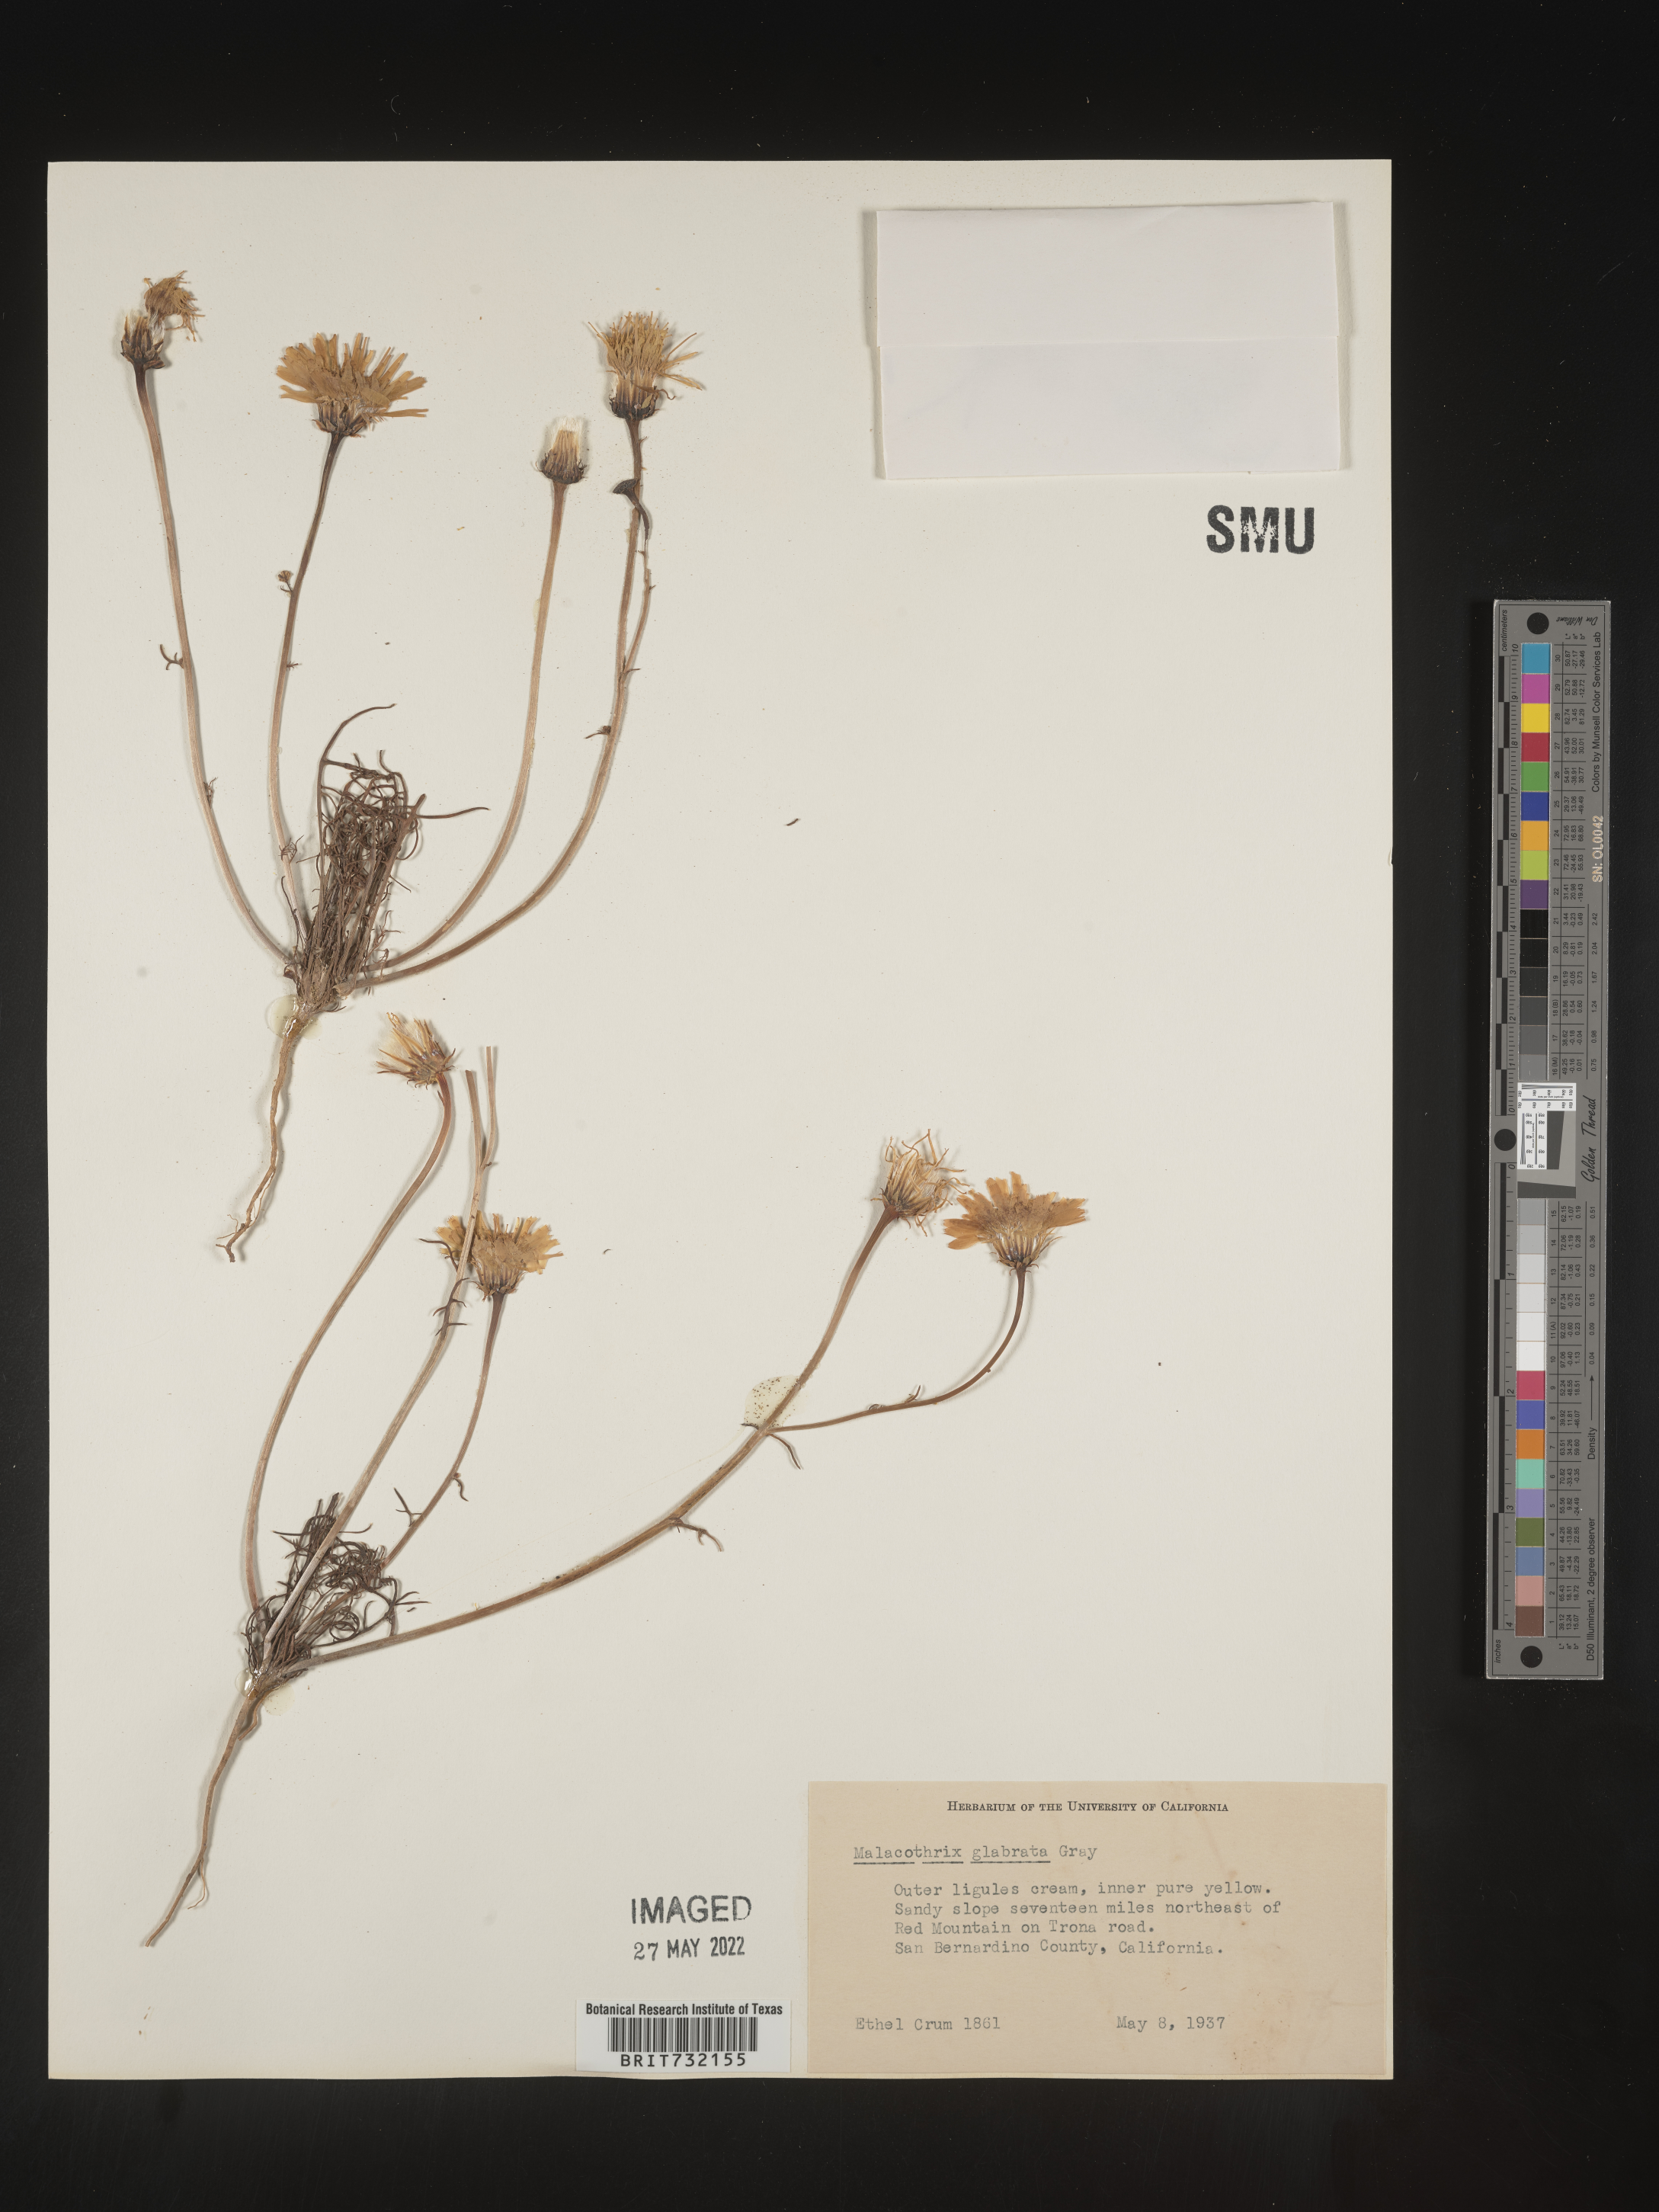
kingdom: Plantae
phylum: Tracheophyta
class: Magnoliopsida
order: Asterales
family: Asteraceae
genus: Malacothrix
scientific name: Malacothrix glabrata
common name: Smooth desert-dandelion
